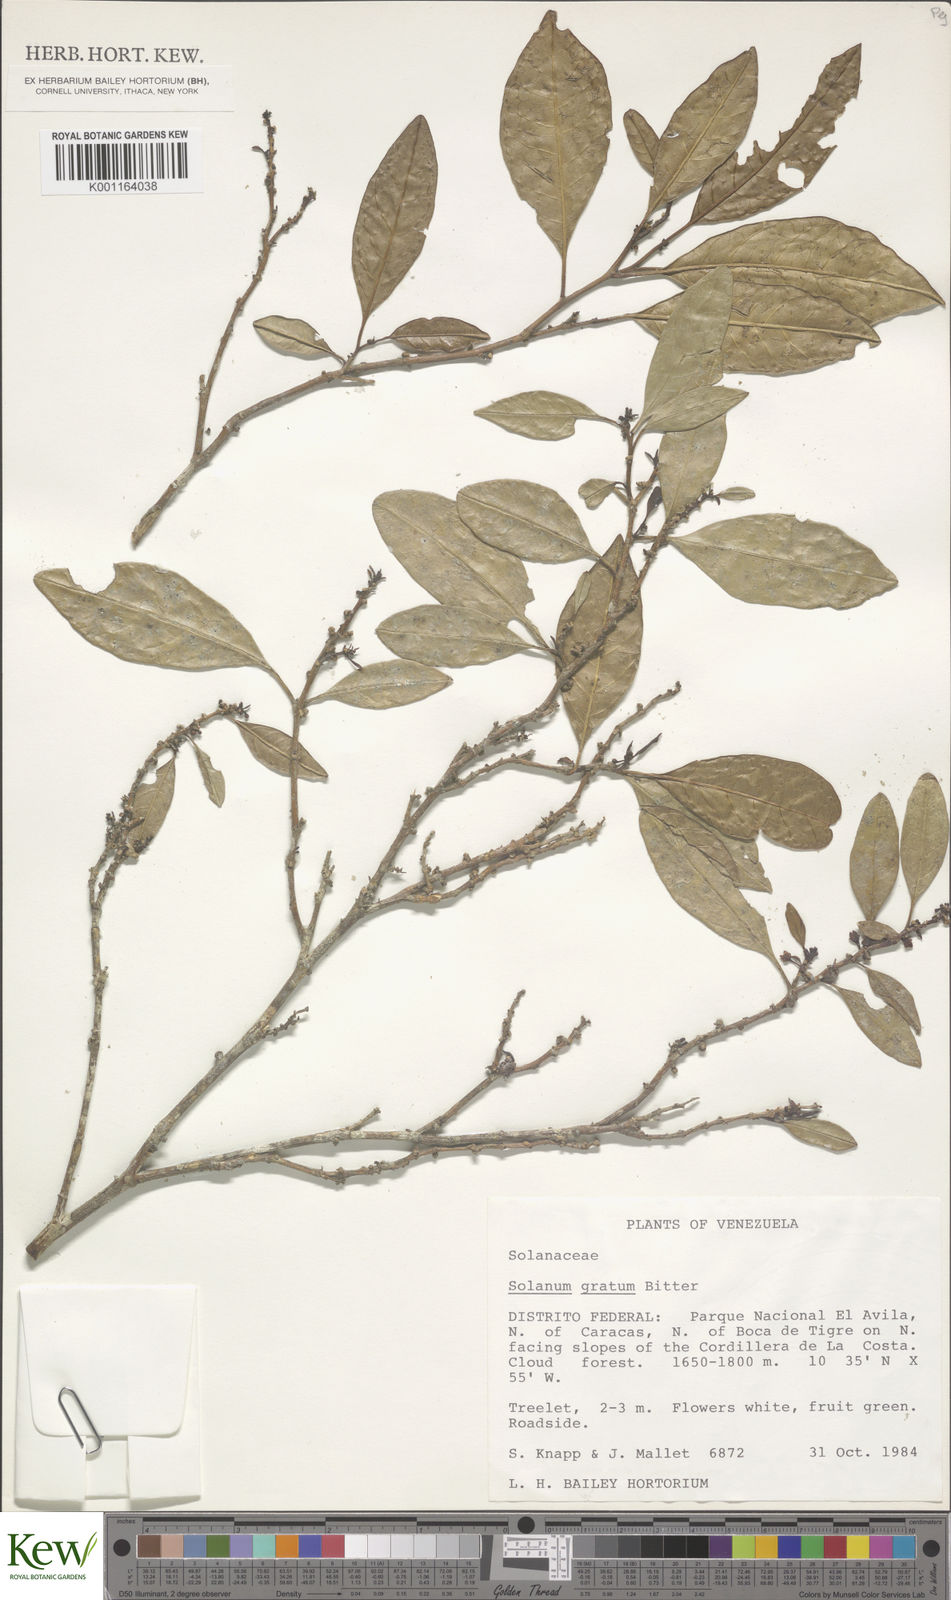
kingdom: Plantae
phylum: Tracheophyta
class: Magnoliopsida
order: Solanales
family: Solanaceae
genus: Solanum
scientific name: Solanum gratum
